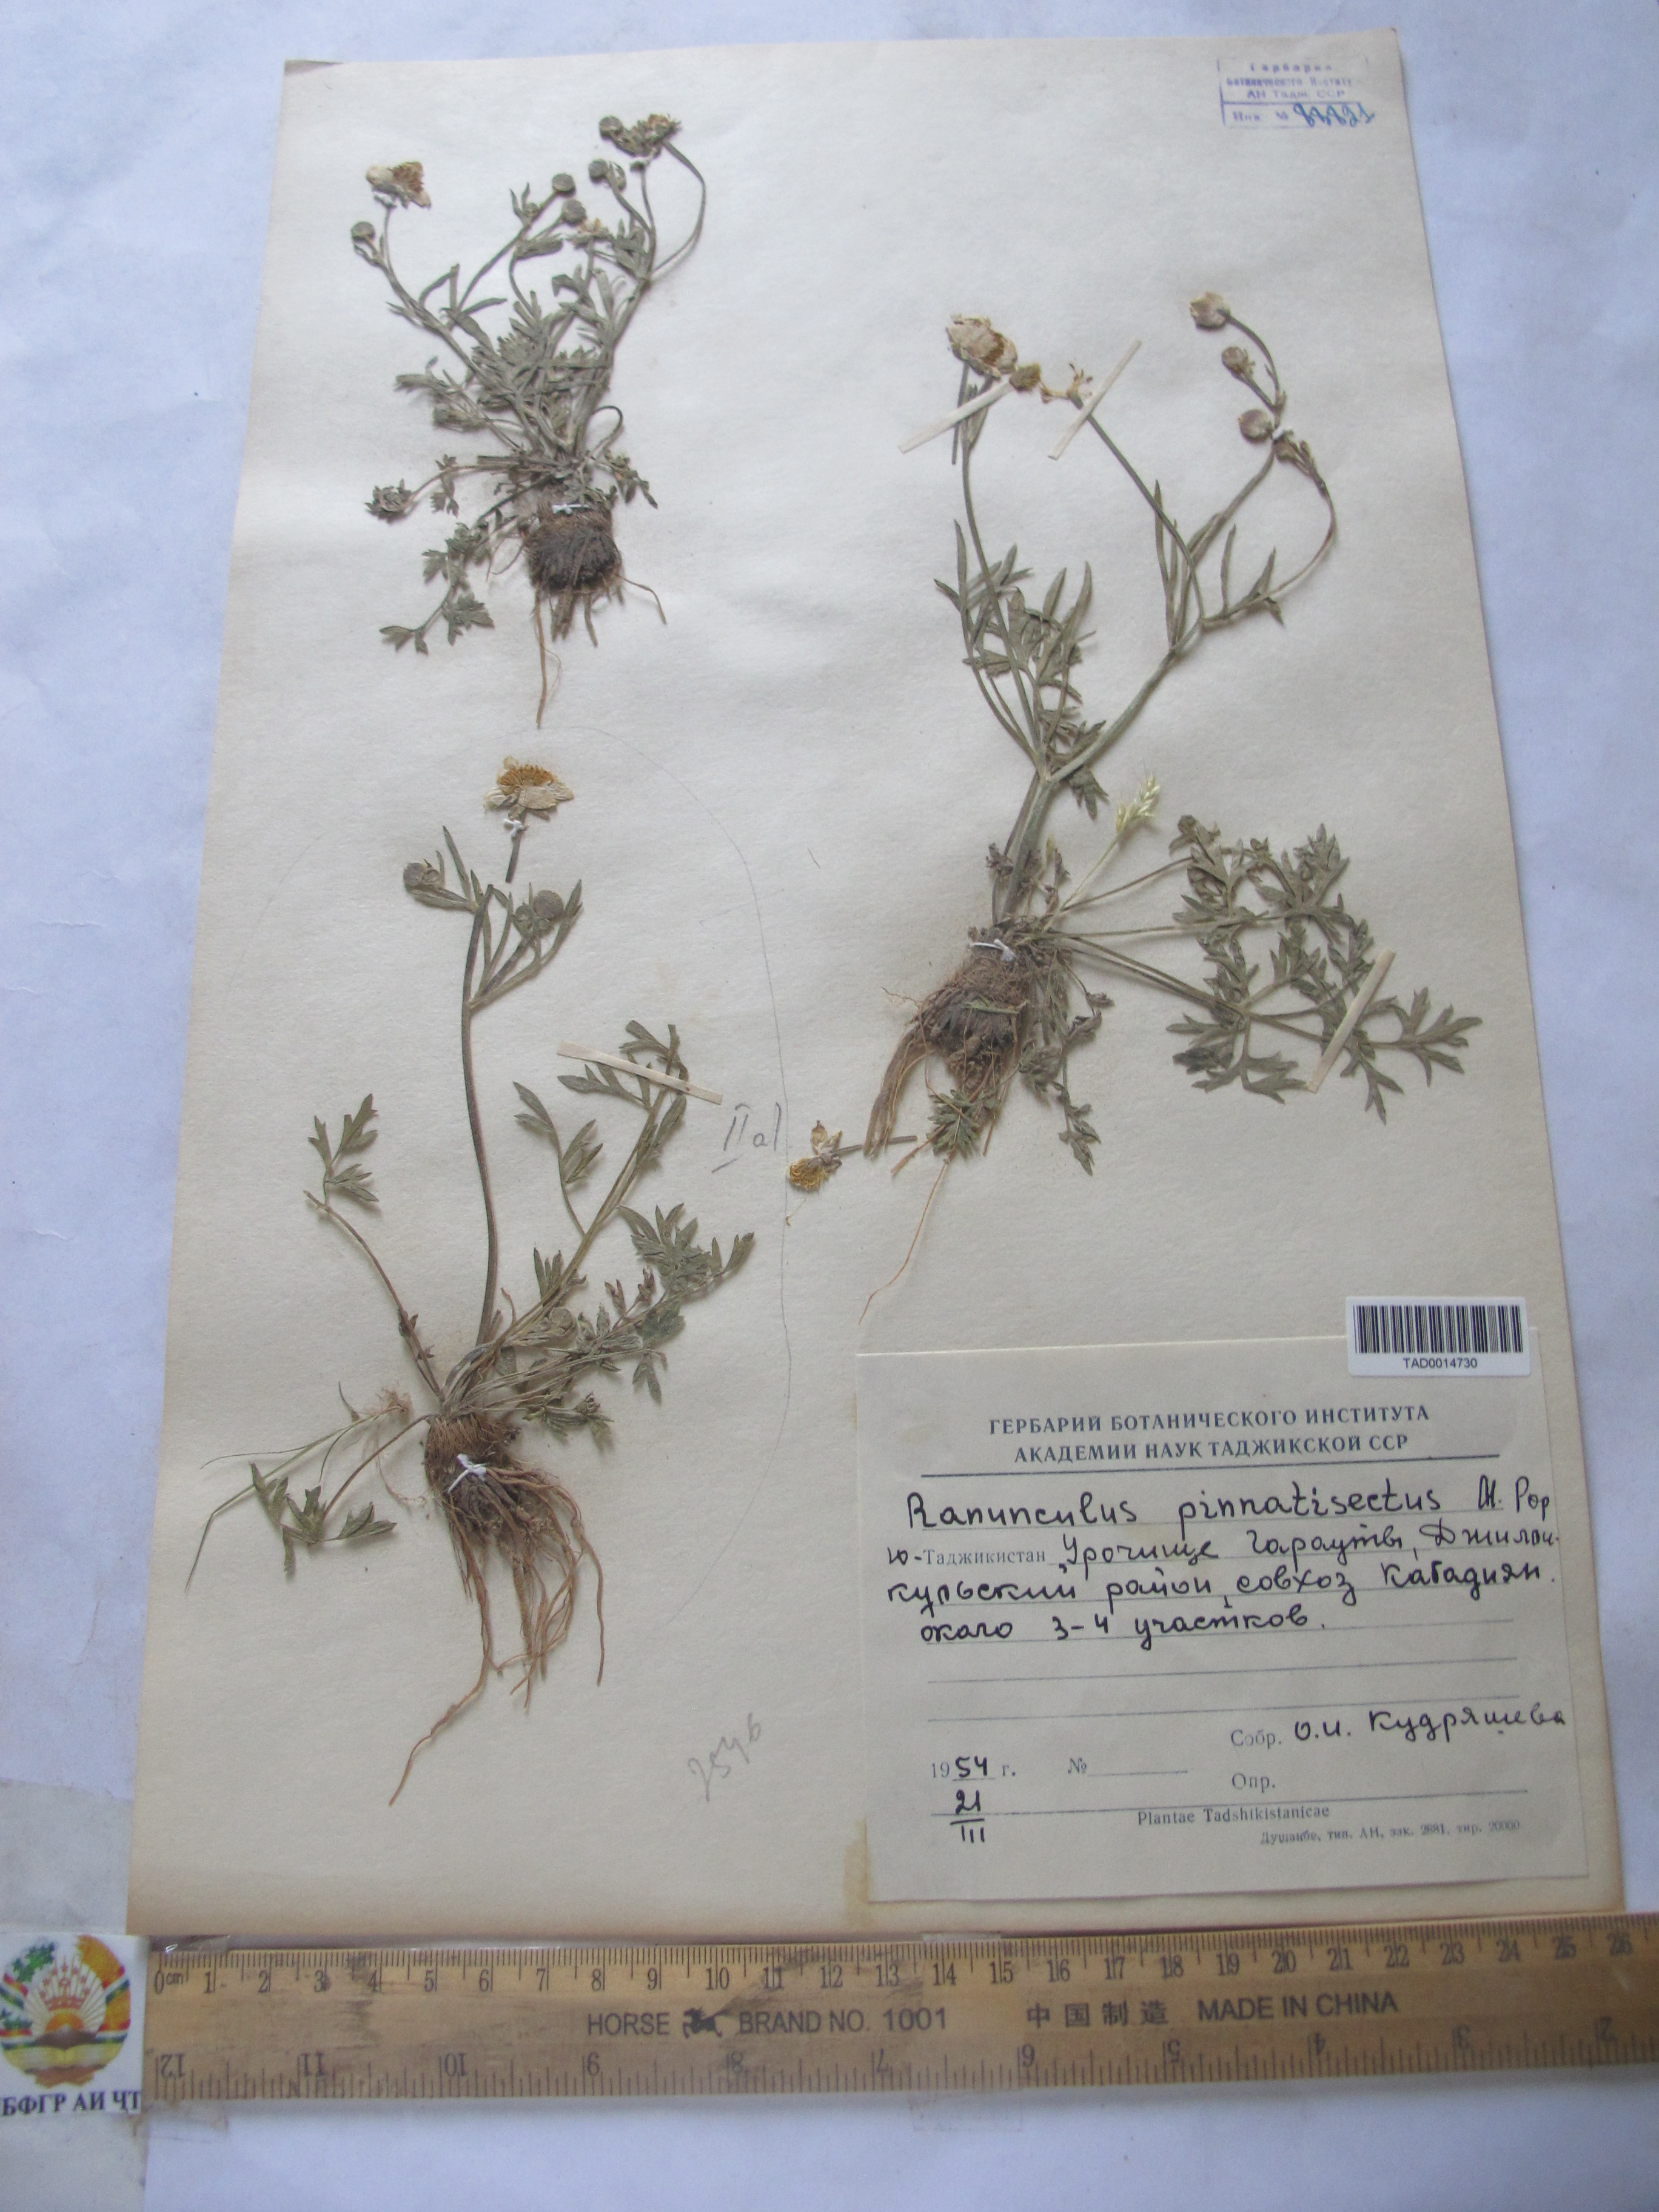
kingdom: Plantae
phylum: Tracheophyta
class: Magnoliopsida
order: Ranunculales
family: Ranunculaceae
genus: Ranunculus
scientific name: Ranunculus pinnatisectus
